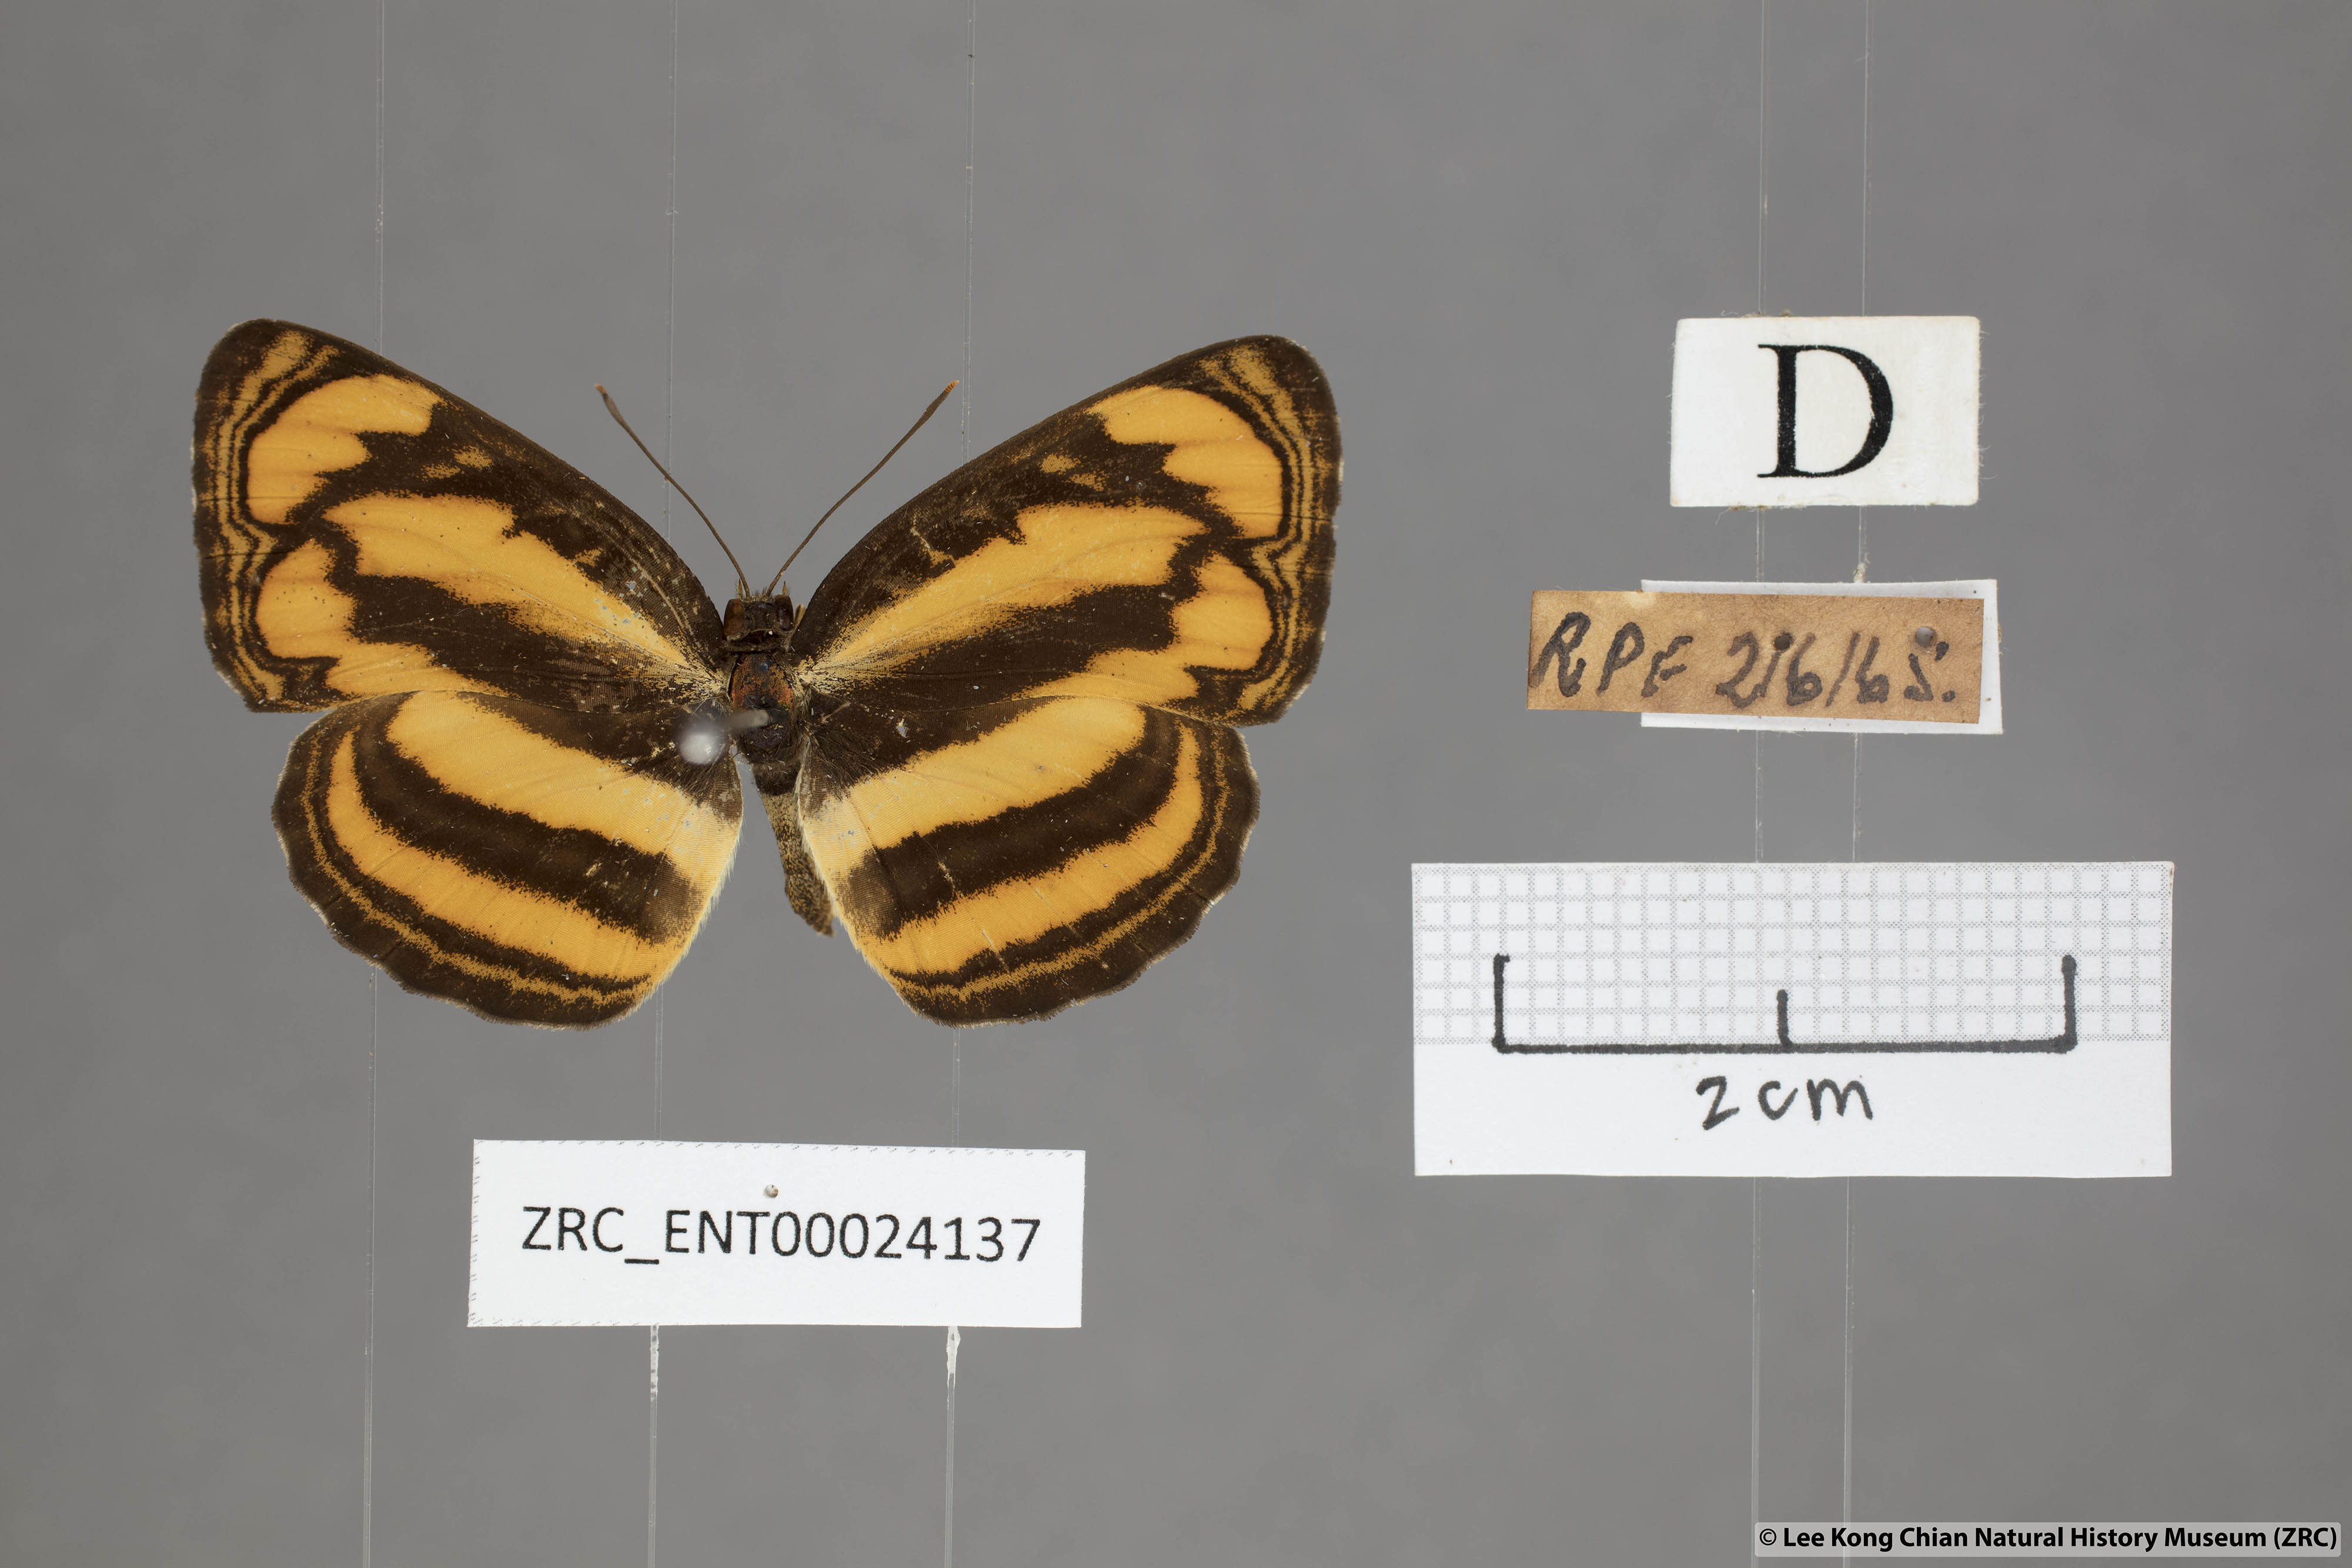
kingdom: Animalia
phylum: Arthropoda
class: Insecta
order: Lepidoptera
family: Nymphalidae
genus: Pantoporia
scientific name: Pantoporia paraka
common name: Perak lascar
